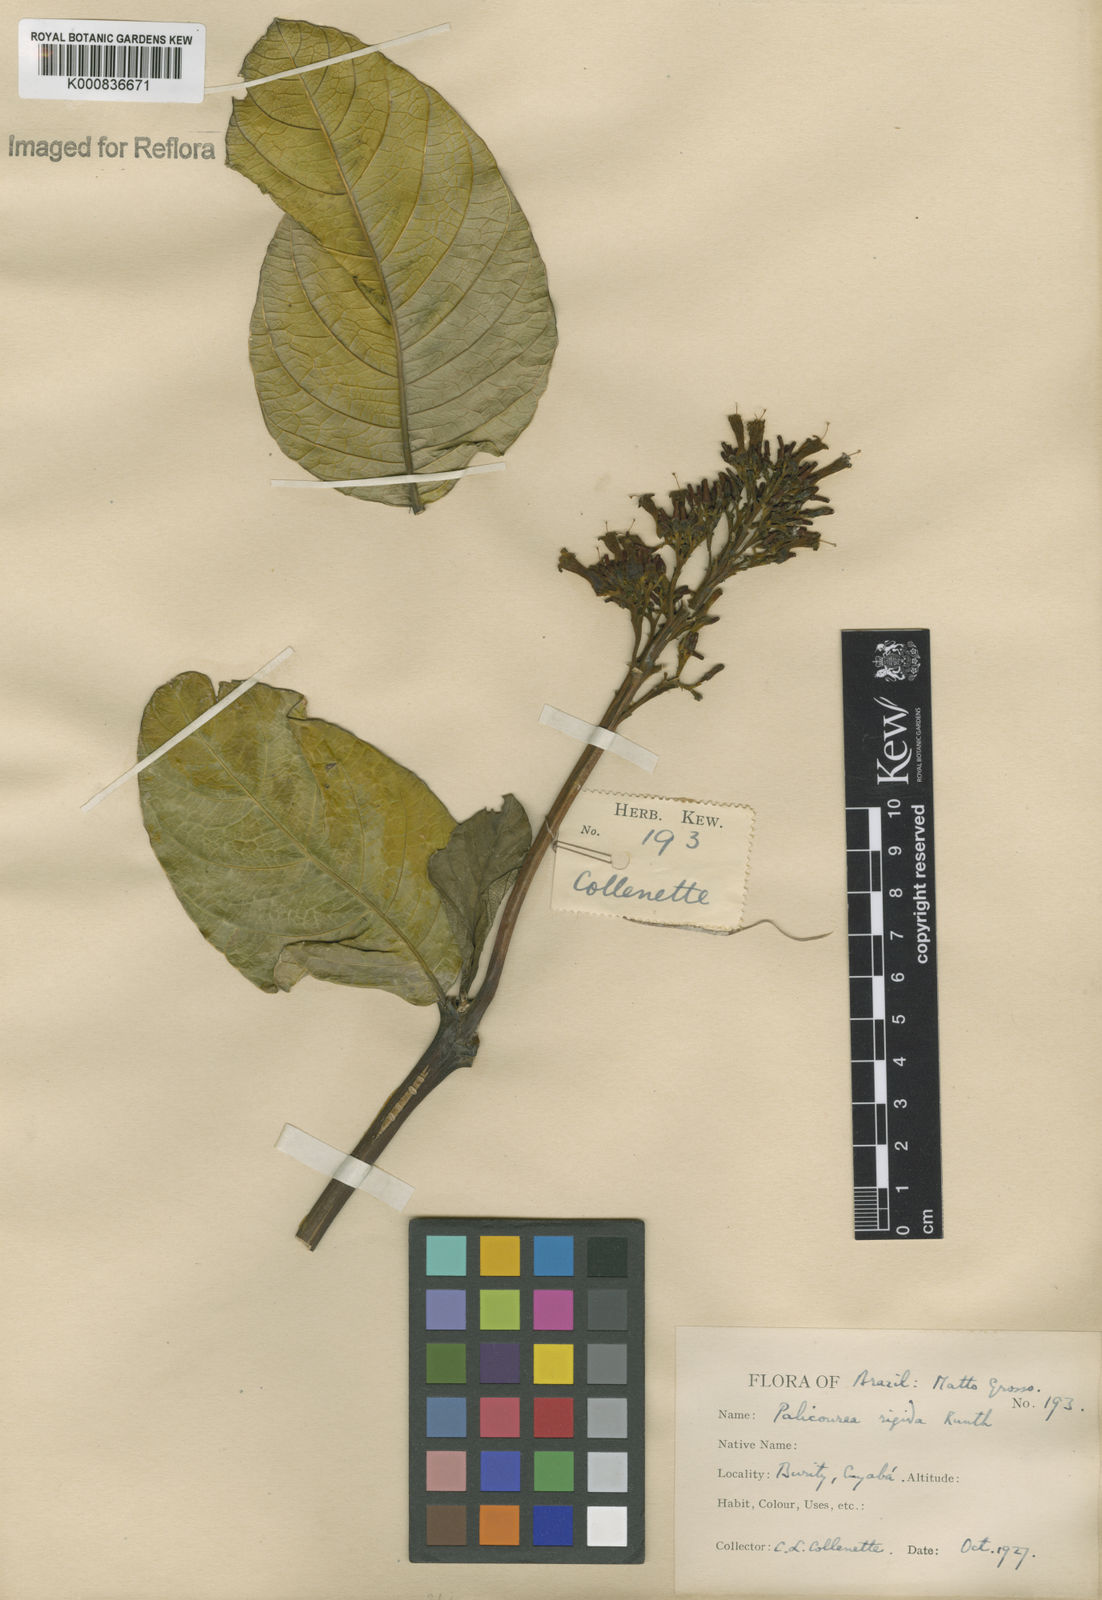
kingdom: Plantae
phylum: Tracheophyta
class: Magnoliopsida
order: Gentianales
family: Rubiaceae
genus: Palicourea
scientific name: Palicourea rigida
